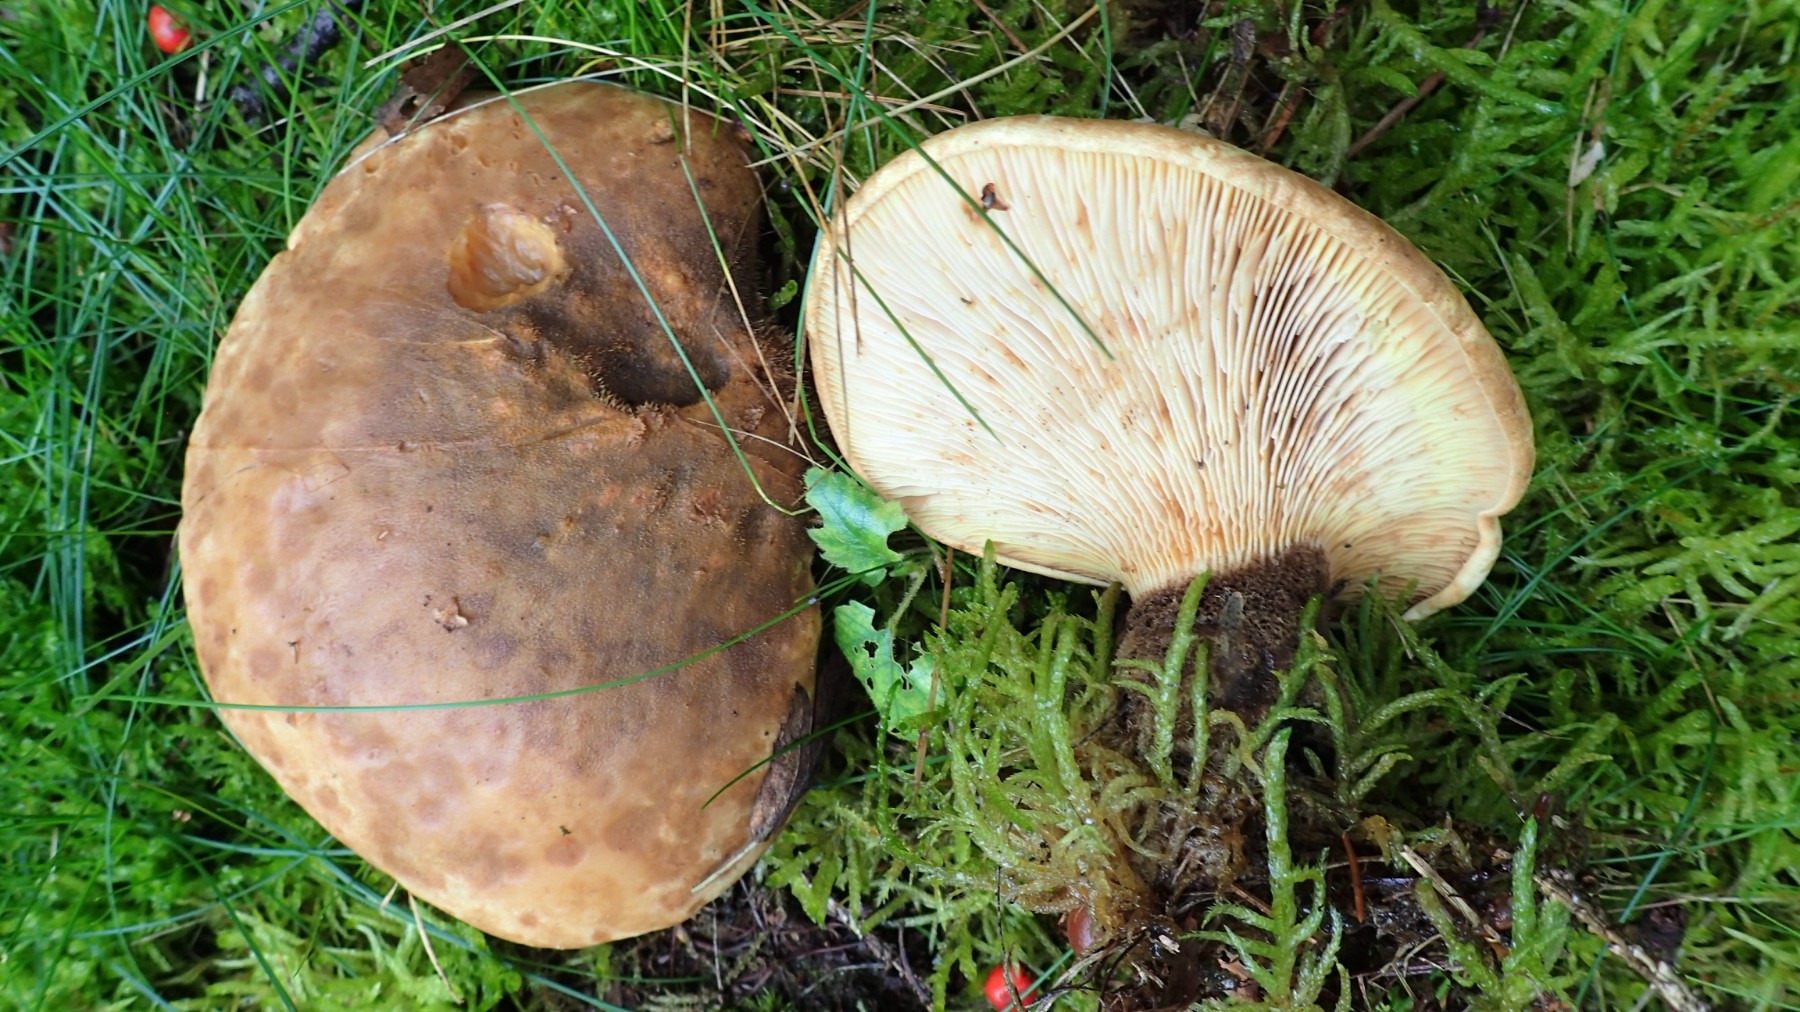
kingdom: Fungi
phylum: Basidiomycota
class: Agaricomycetes
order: Boletales
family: Tapinellaceae
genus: Tapinella
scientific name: Tapinella atrotomentosa
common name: sortfiltet viftesvamp
